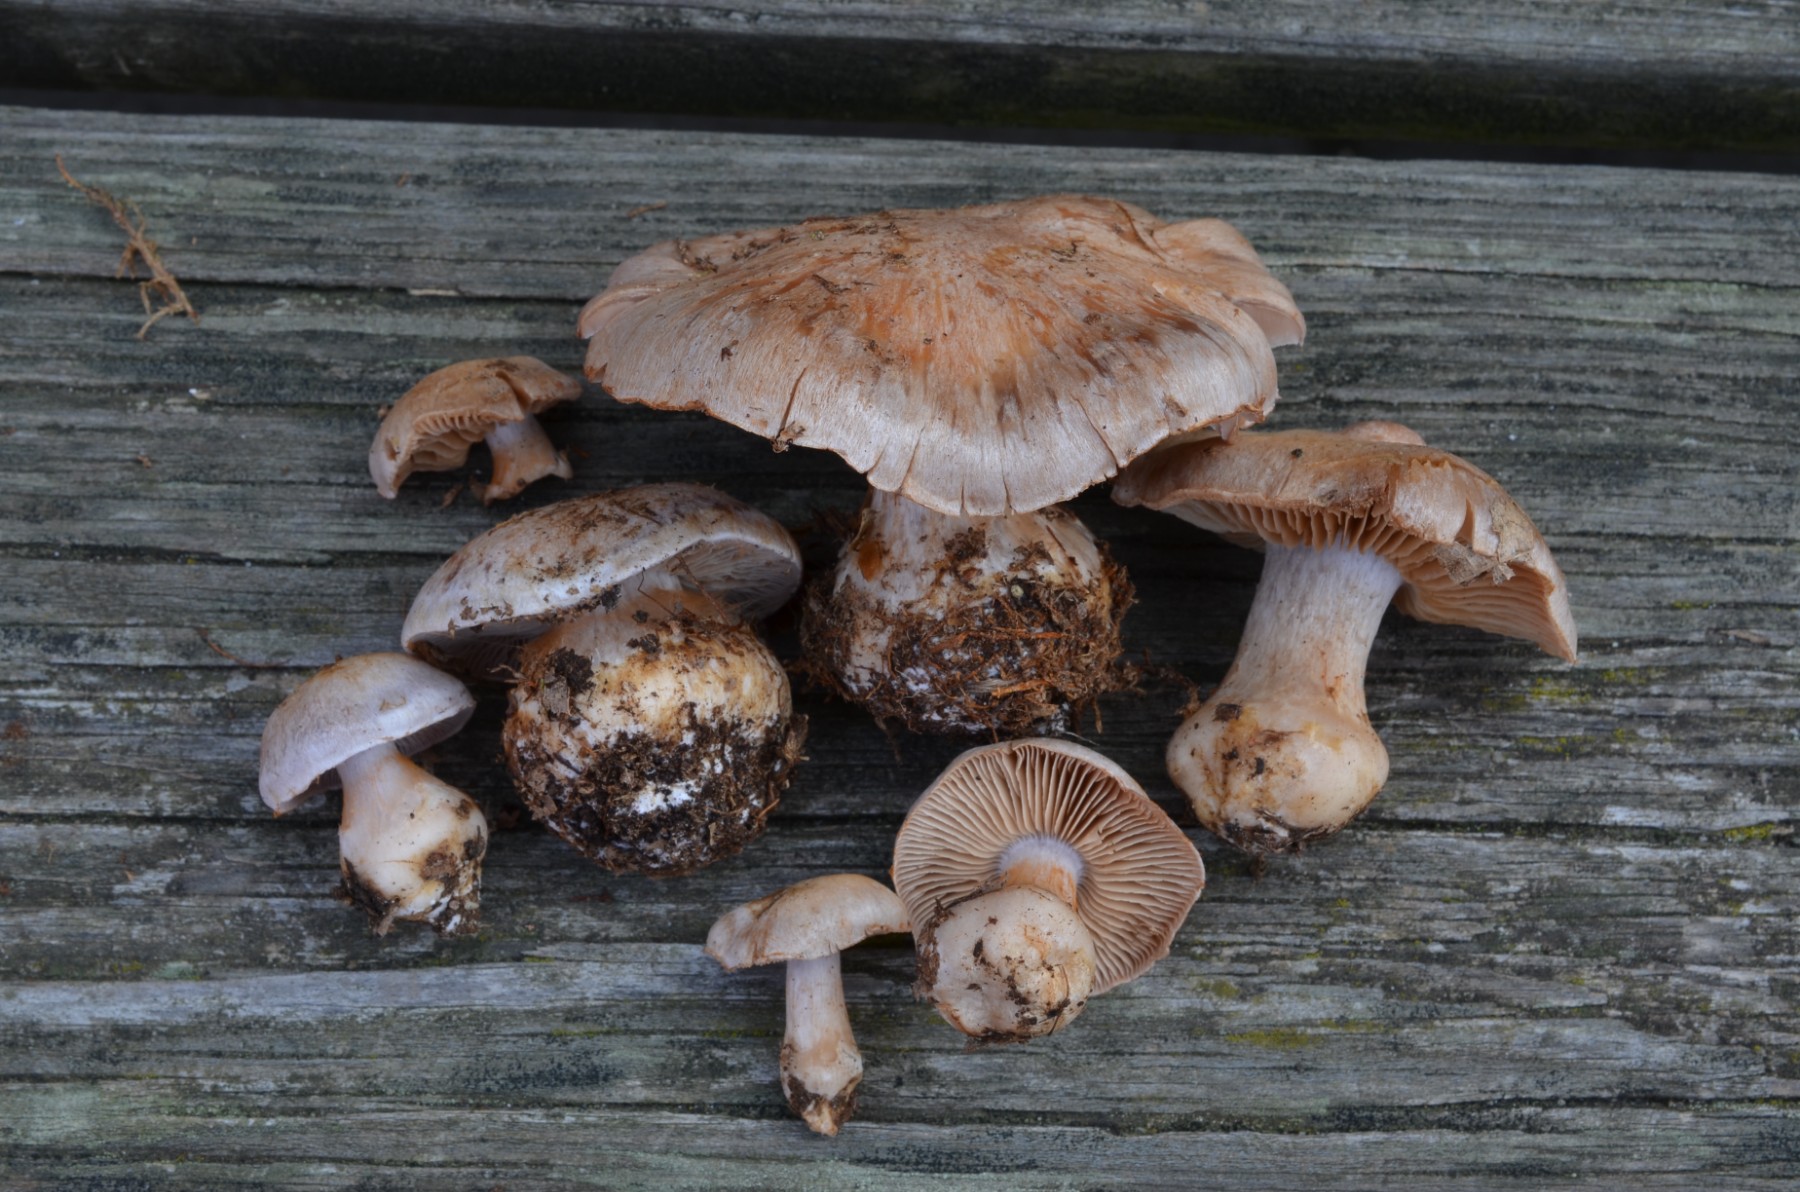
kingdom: Fungi
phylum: Basidiomycota
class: Agaricomycetes
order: Agaricales
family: Cortinariaceae
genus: Cortinarius
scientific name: Cortinarius subsedens
